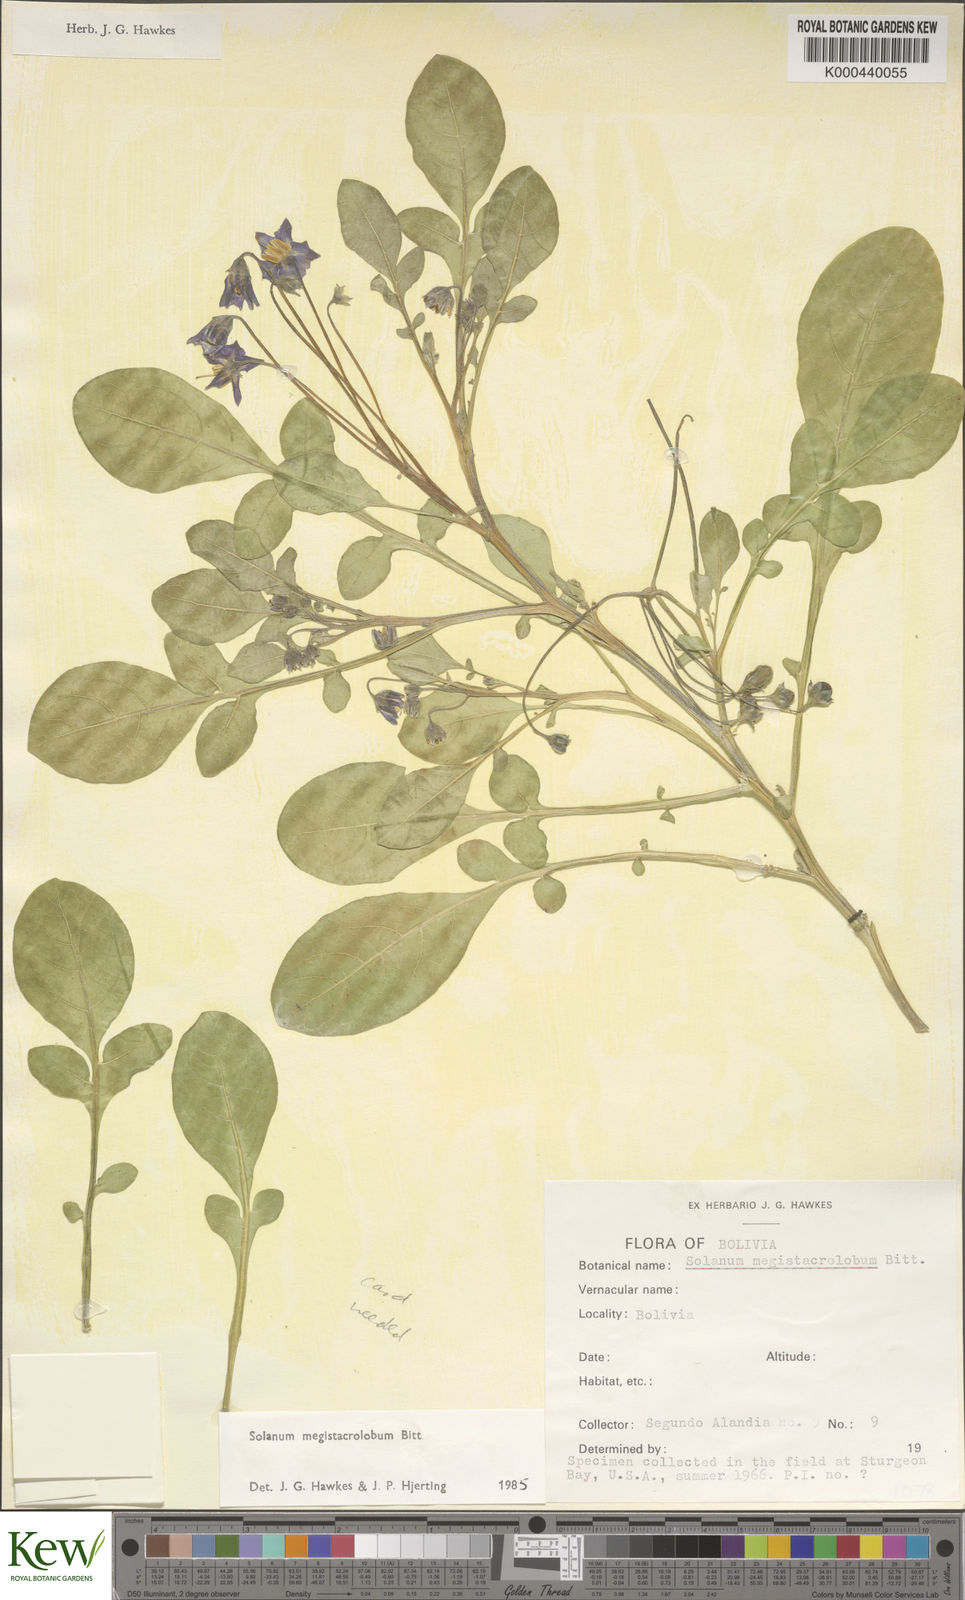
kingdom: Plantae
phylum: Tracheophyta
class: Magnoliopsida
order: Solanales
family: Solanaceae
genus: Solanum
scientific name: Solanum boliviense
